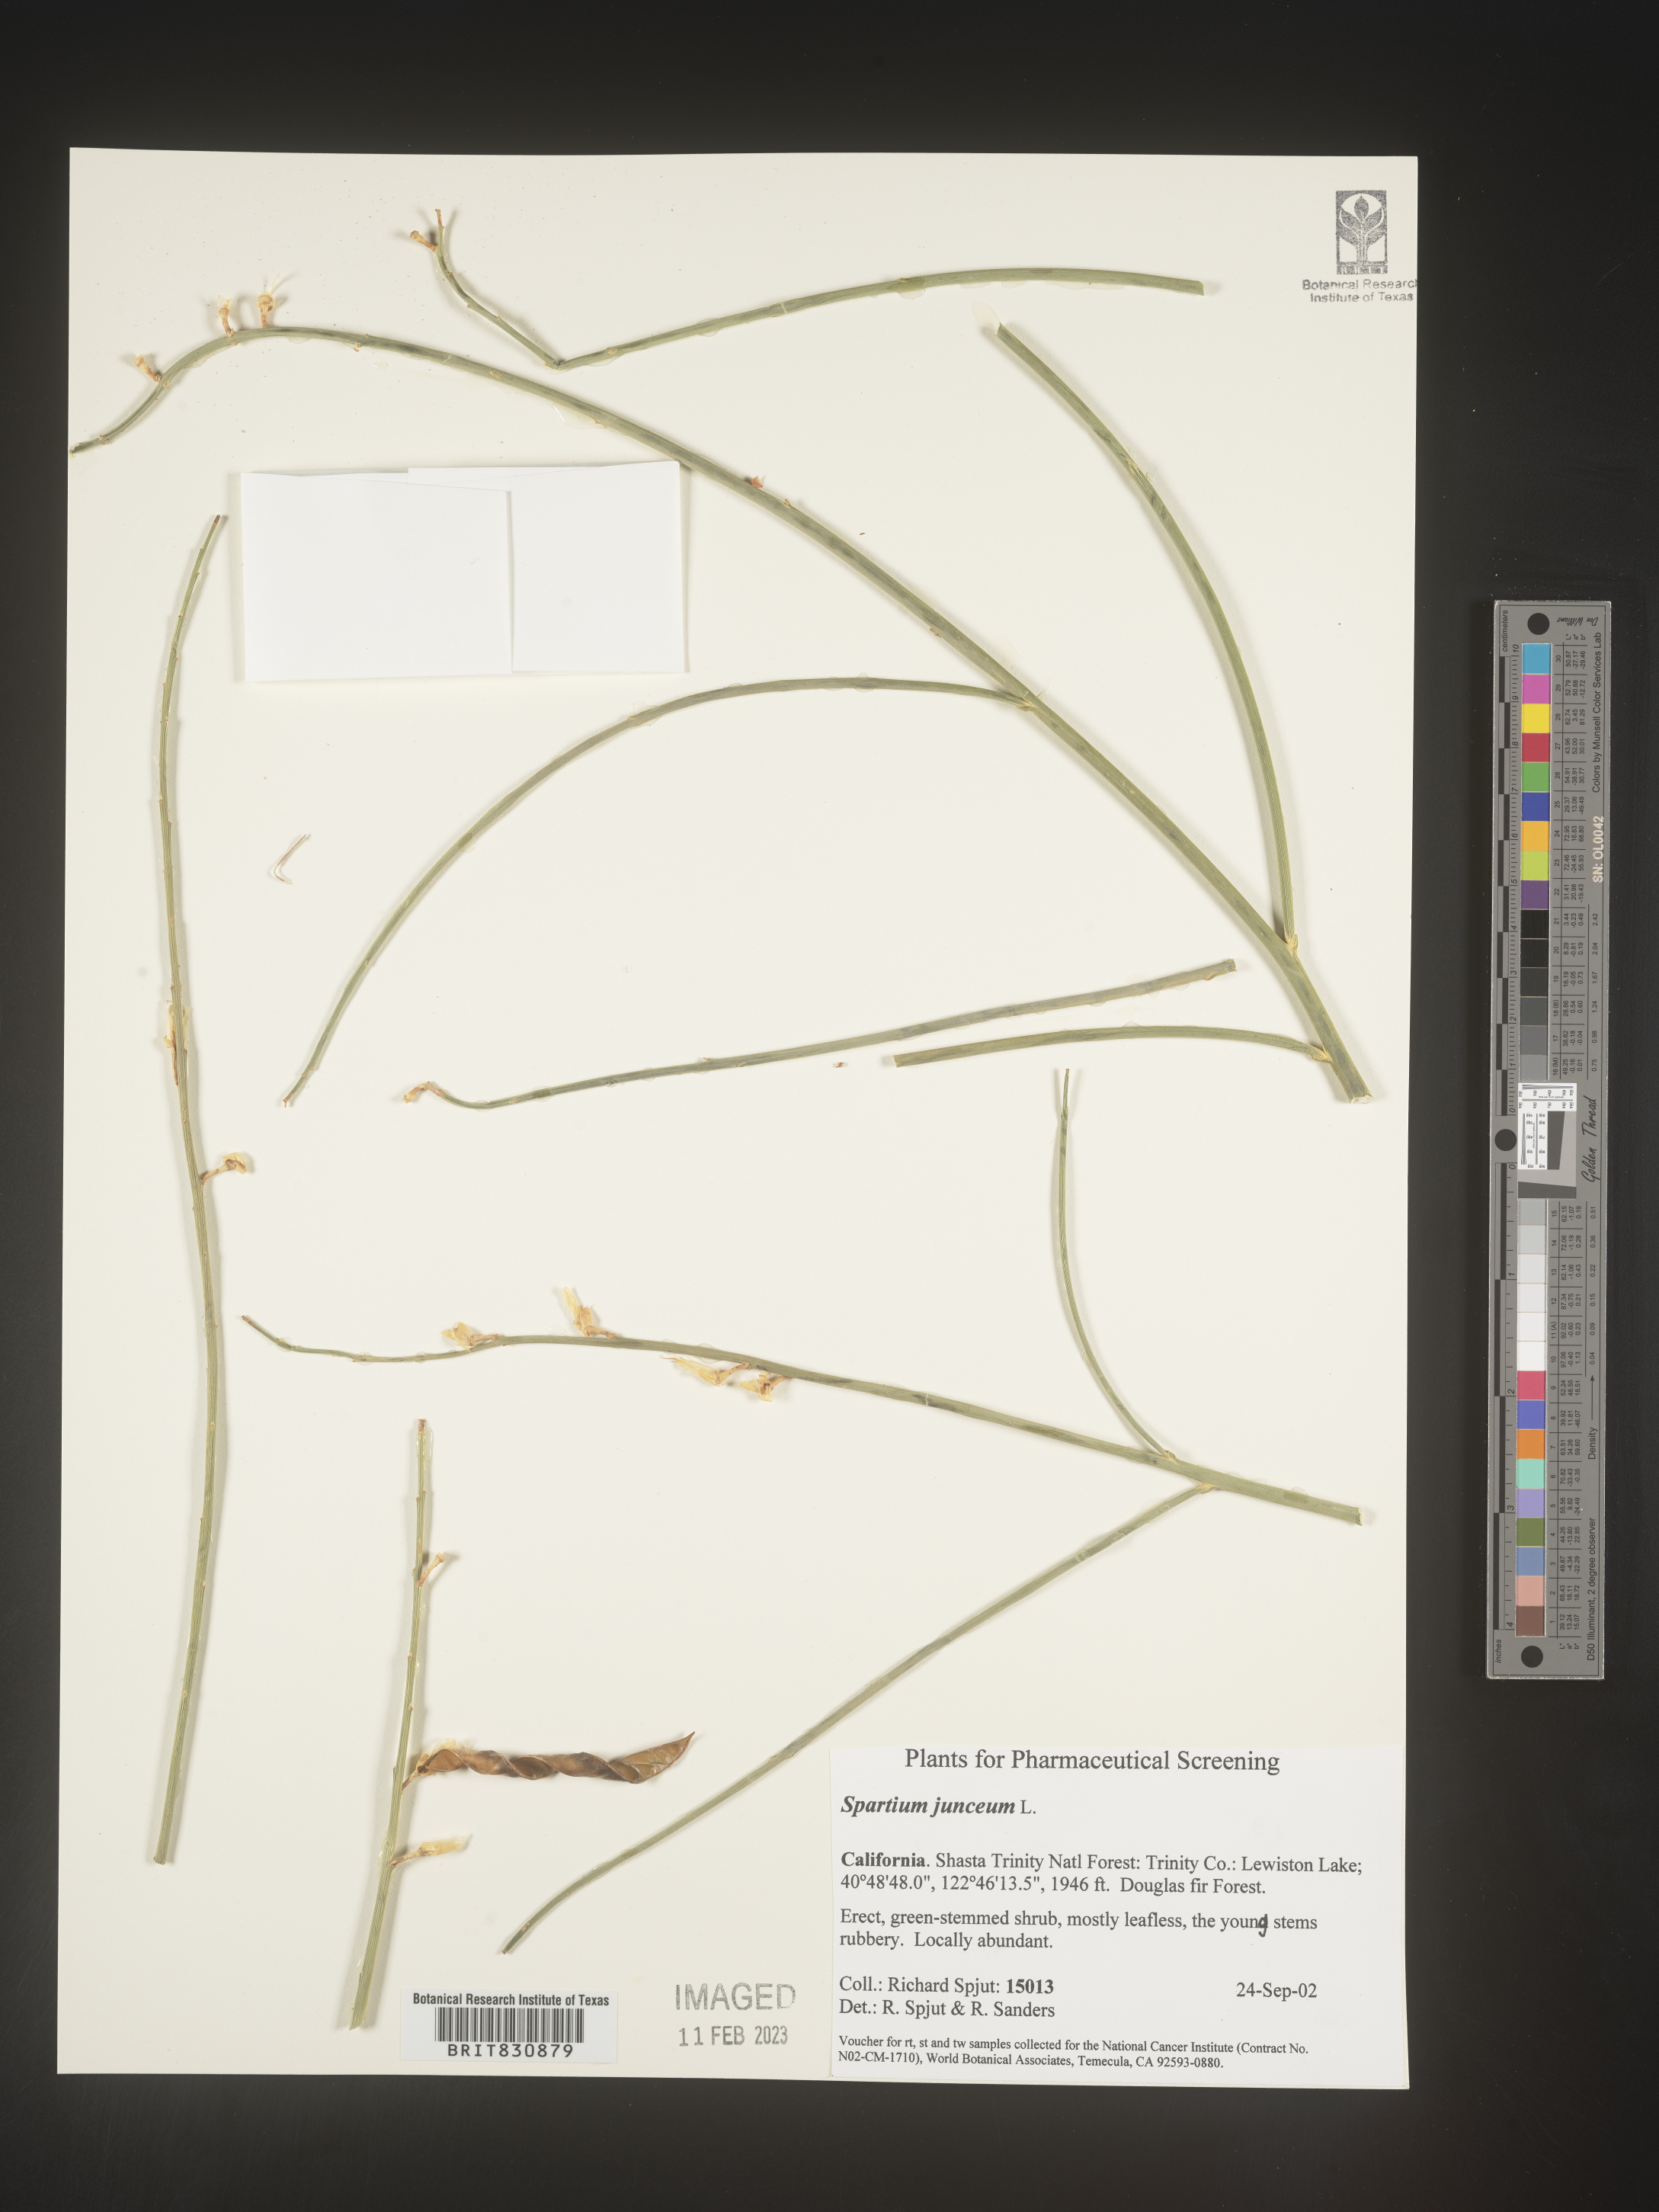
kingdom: Plantae
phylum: Tracheophyta
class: Magnoliopsida
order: Fabales
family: Fabaceae
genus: Spartium
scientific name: Spartium
